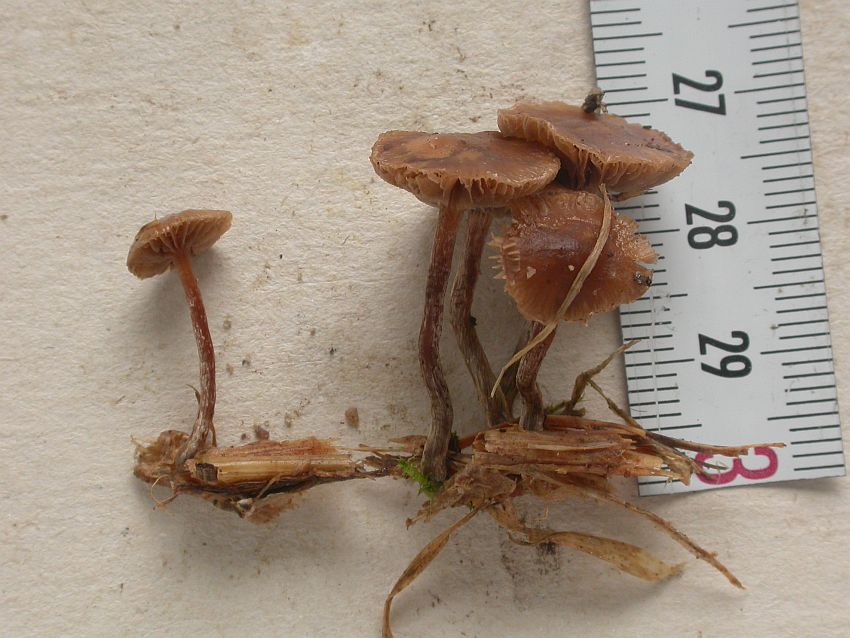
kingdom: Fungi
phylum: Basidiomycota
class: Agaricomycetes
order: Agaricales
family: Strophariaceae
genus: Deconica
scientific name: Deconica inquilina
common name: græs-stråhat
